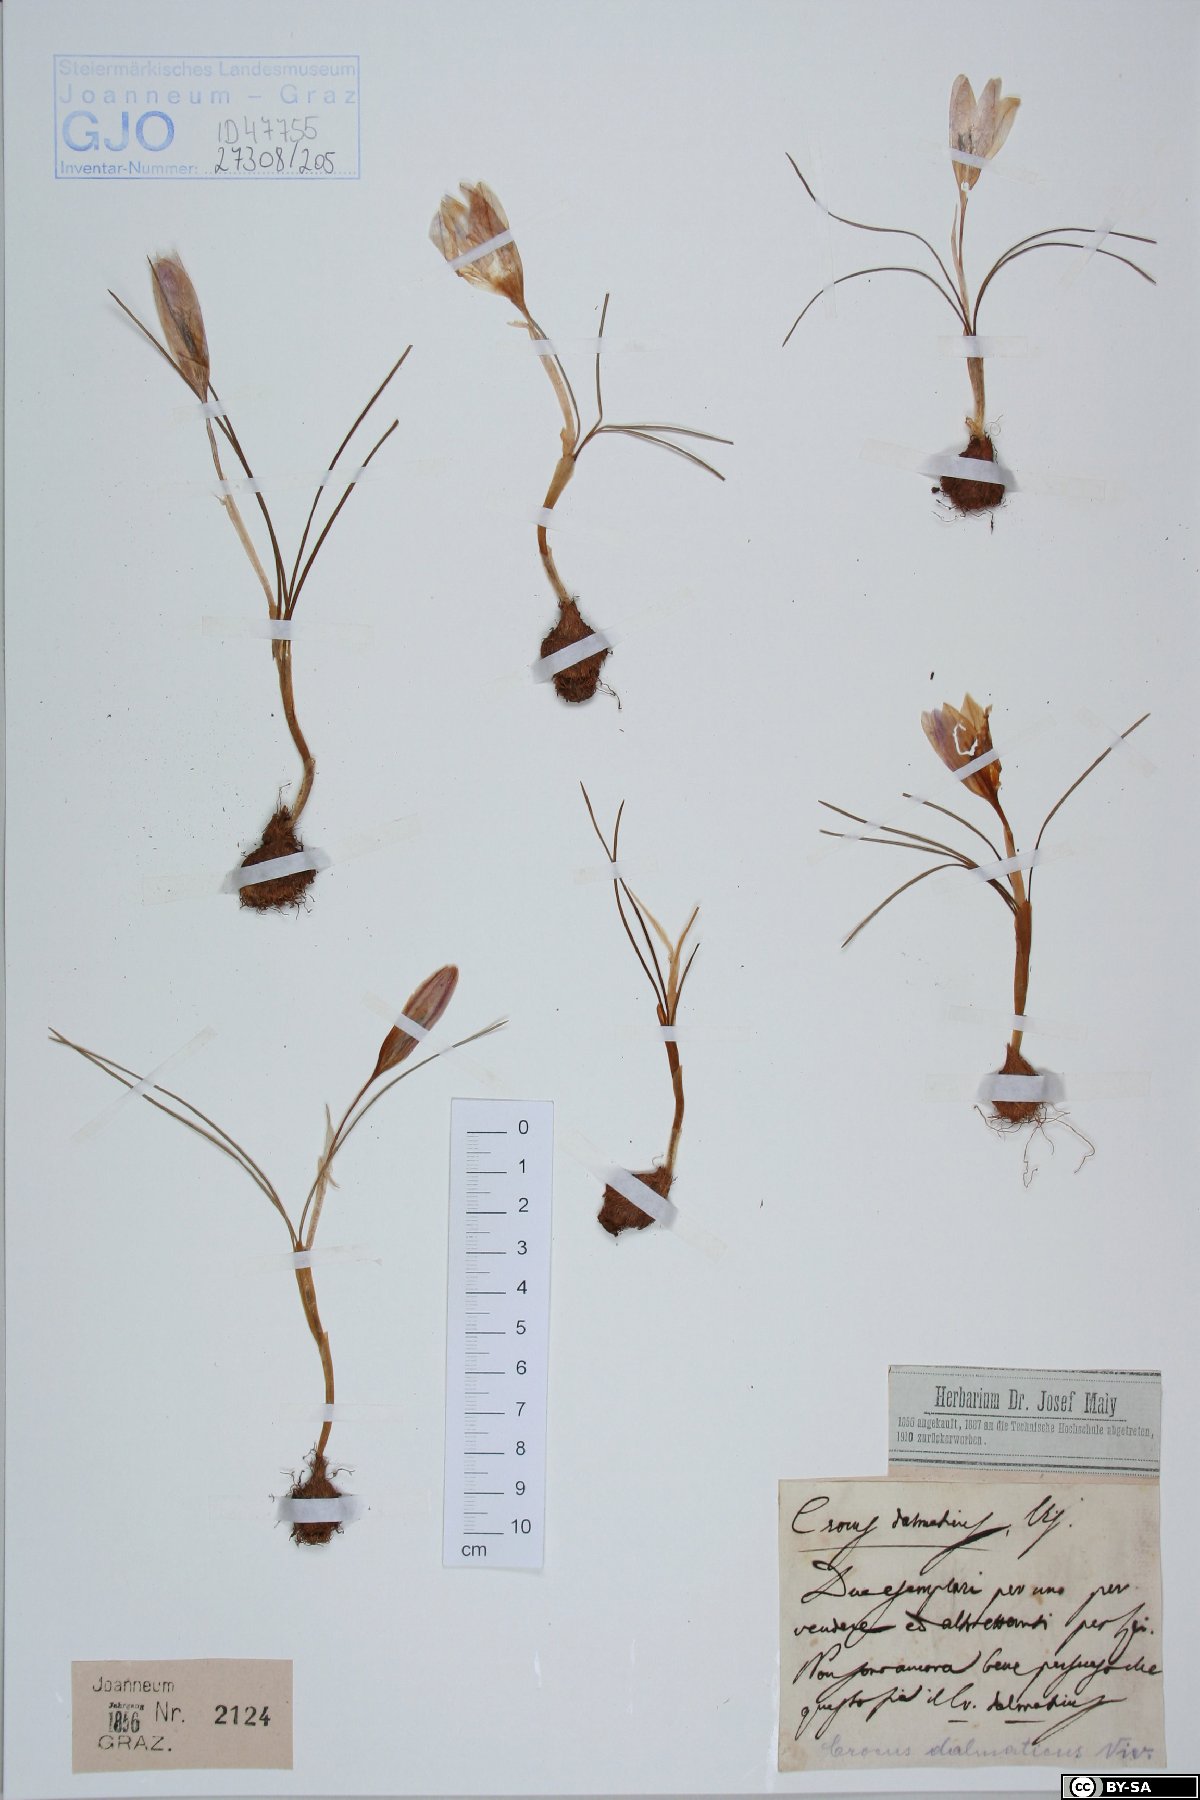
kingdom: Plantae
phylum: Tracheophyta
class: Liliopsida
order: Asparagales
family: Iridaceae
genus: Crocus
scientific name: Crocus dalmaticus
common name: Dalmatian saffron
